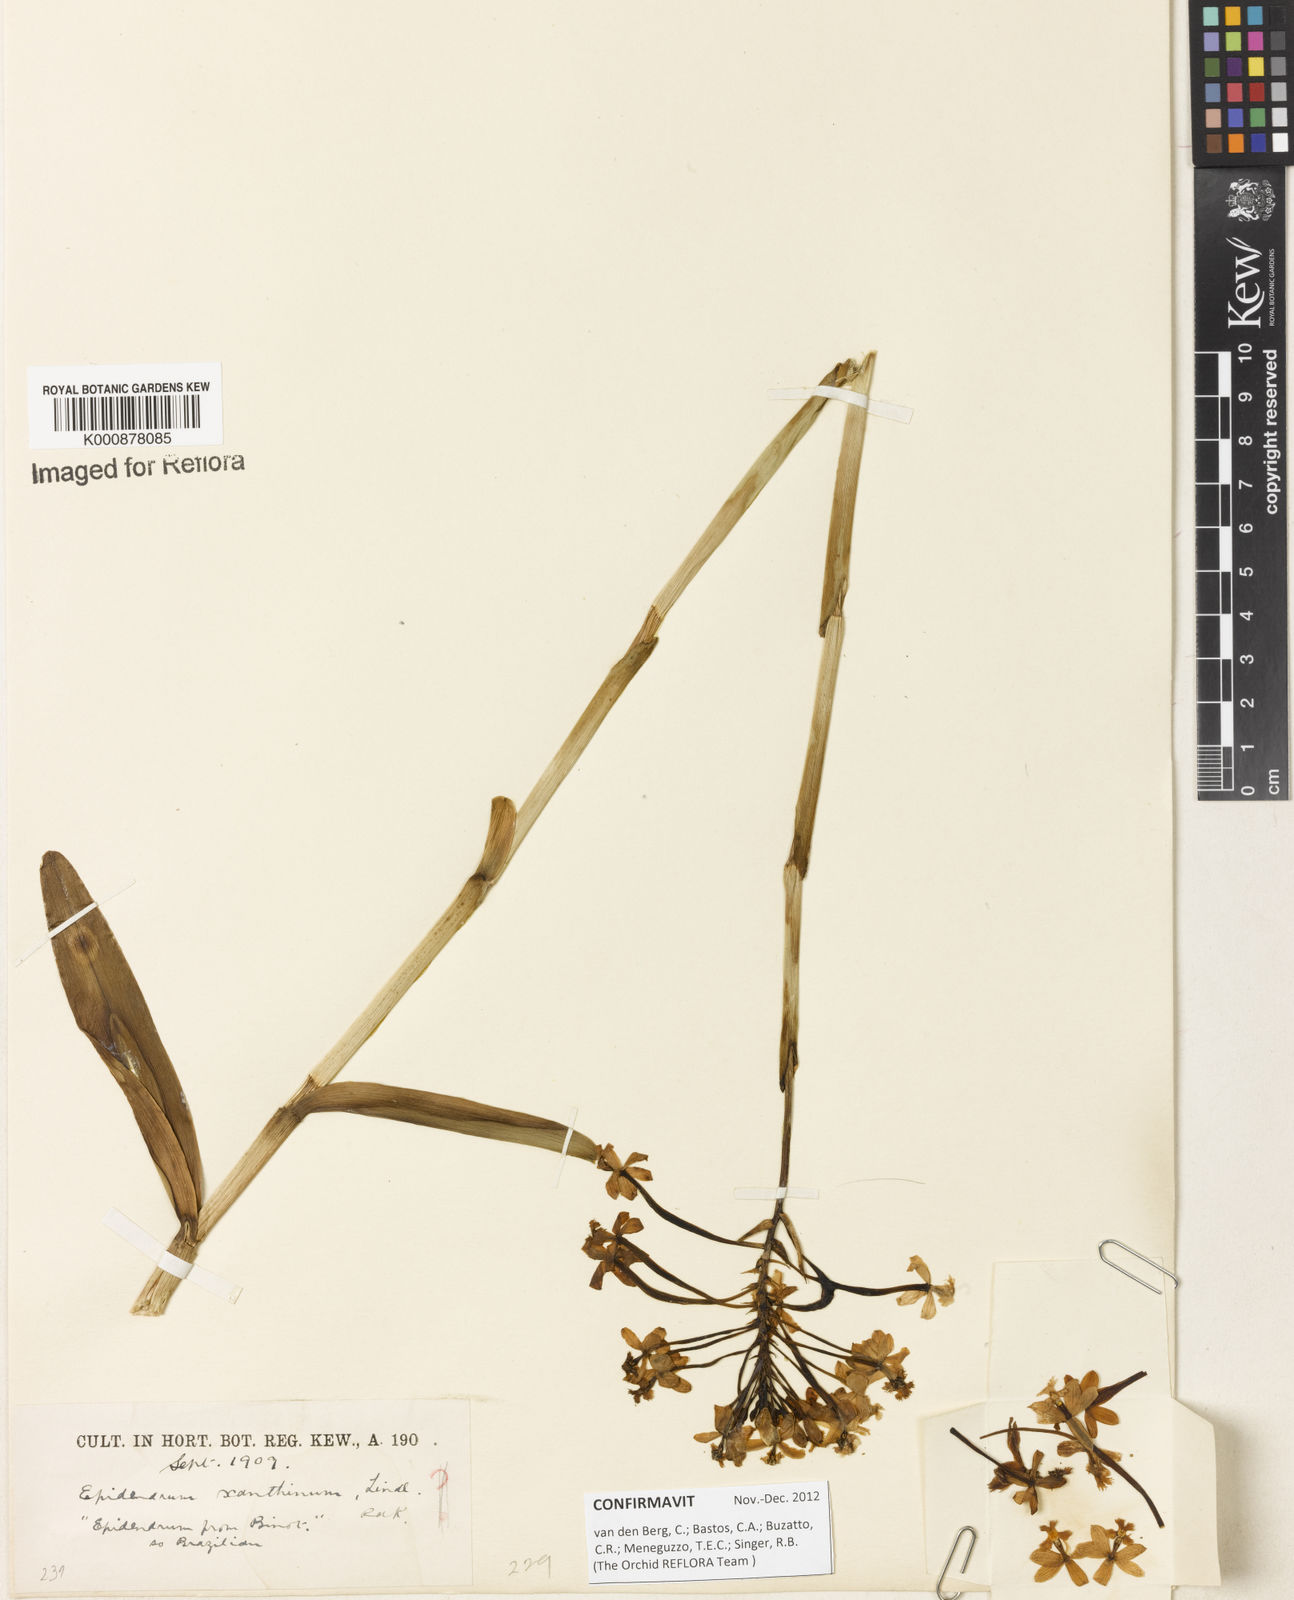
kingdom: Plantae
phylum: Tracheophyta
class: Liliopsida
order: Asparagales
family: Orchidaceae
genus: Epidendrum
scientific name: Epidendrum xanthinum
